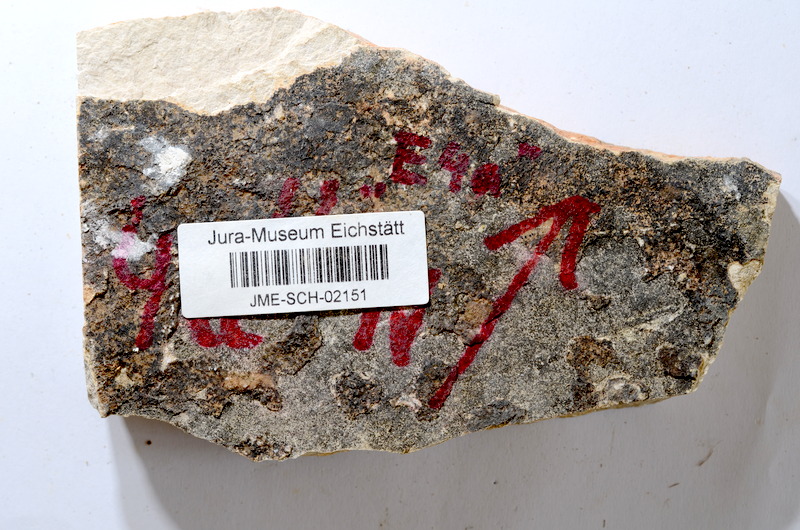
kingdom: Animalia
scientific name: Animalia
